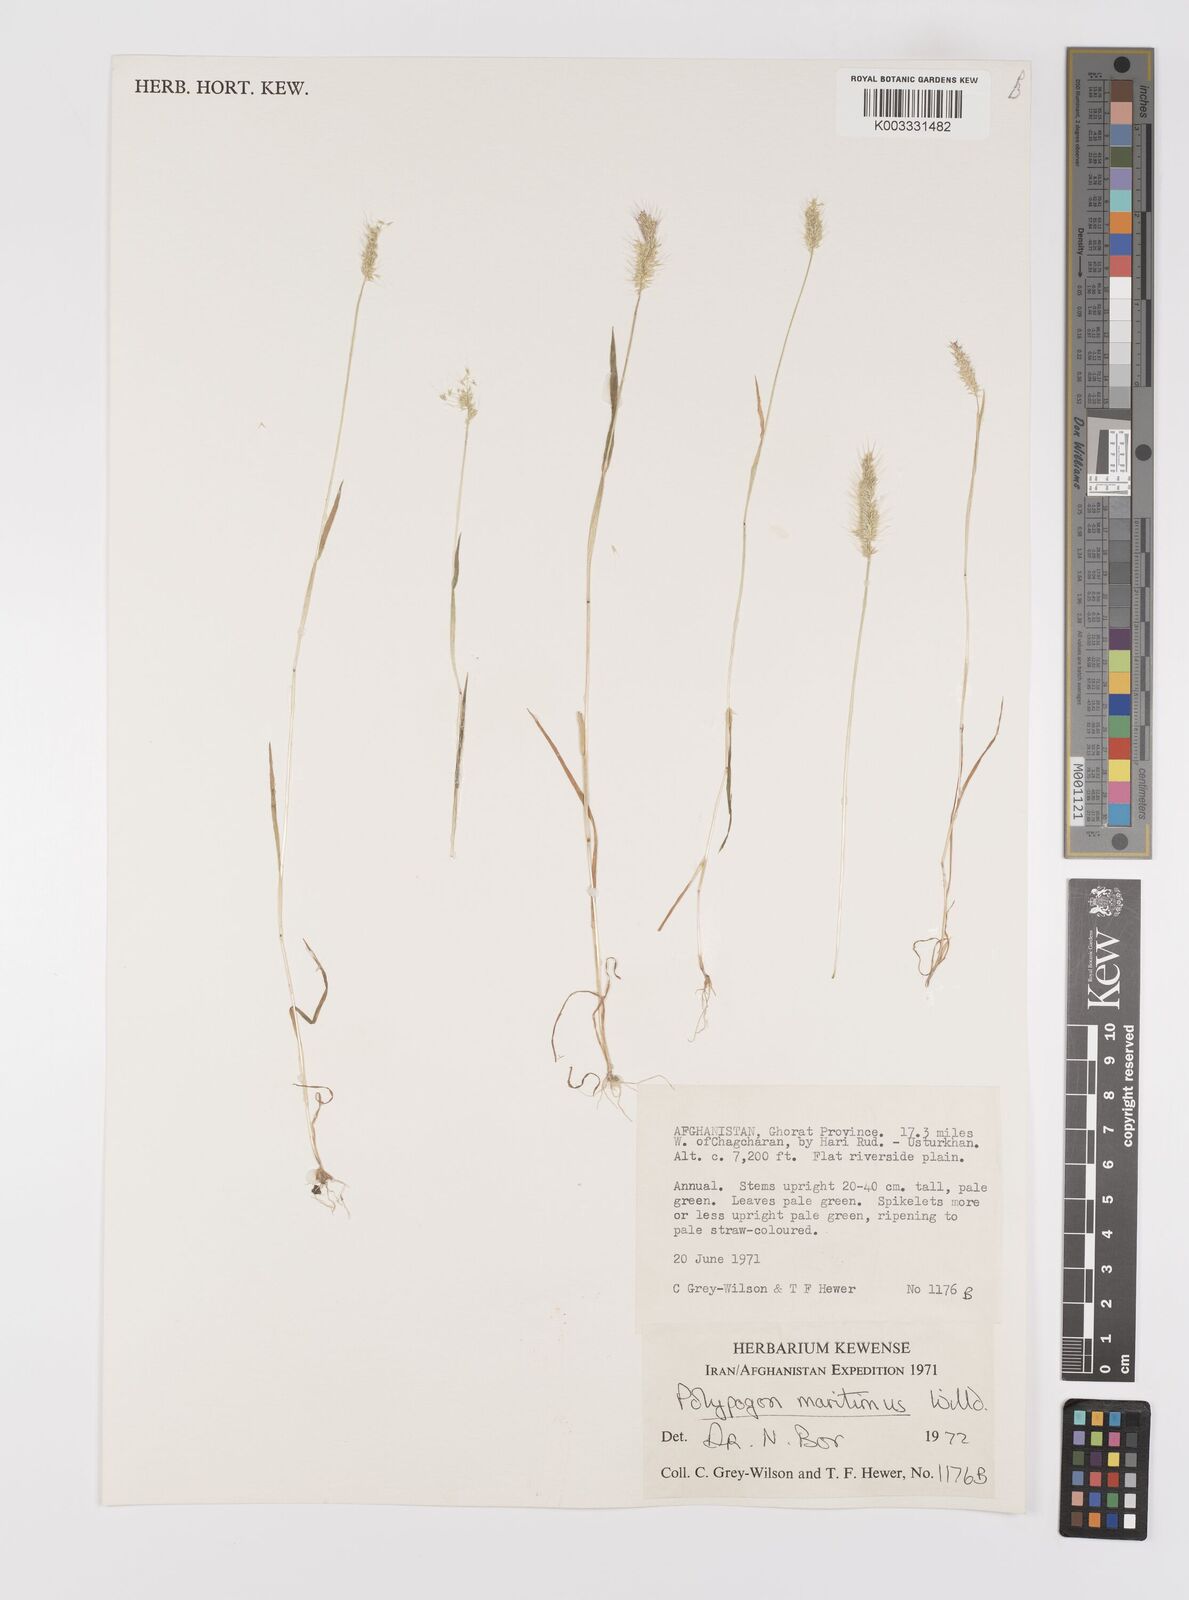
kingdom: Plantae
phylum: Tracheophyta
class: Liliopsida
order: Poales
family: Poaceae
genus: Polypogon
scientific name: Polypogon maritimus
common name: Mediterranean rabbitsfoot grass
